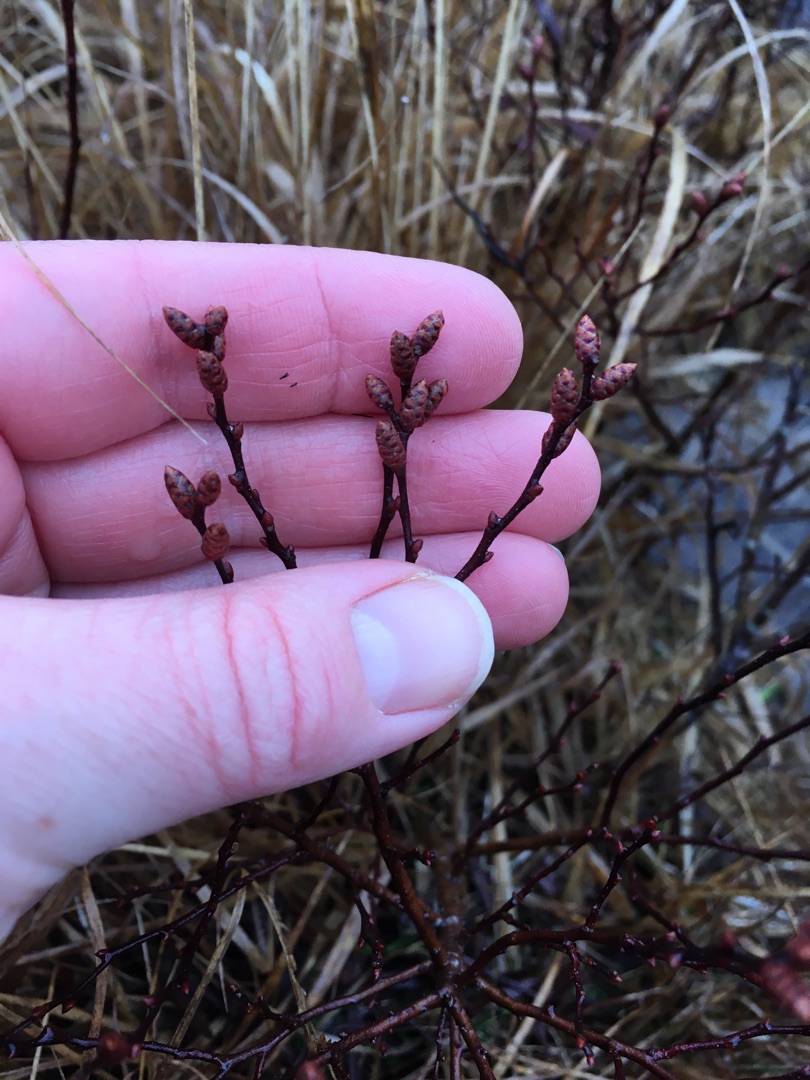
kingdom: Plantae
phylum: Tracheophyta
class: Magnoliopsida
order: Fagales
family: Myricaceae
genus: Myrica
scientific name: Myrica gale
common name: Pors
